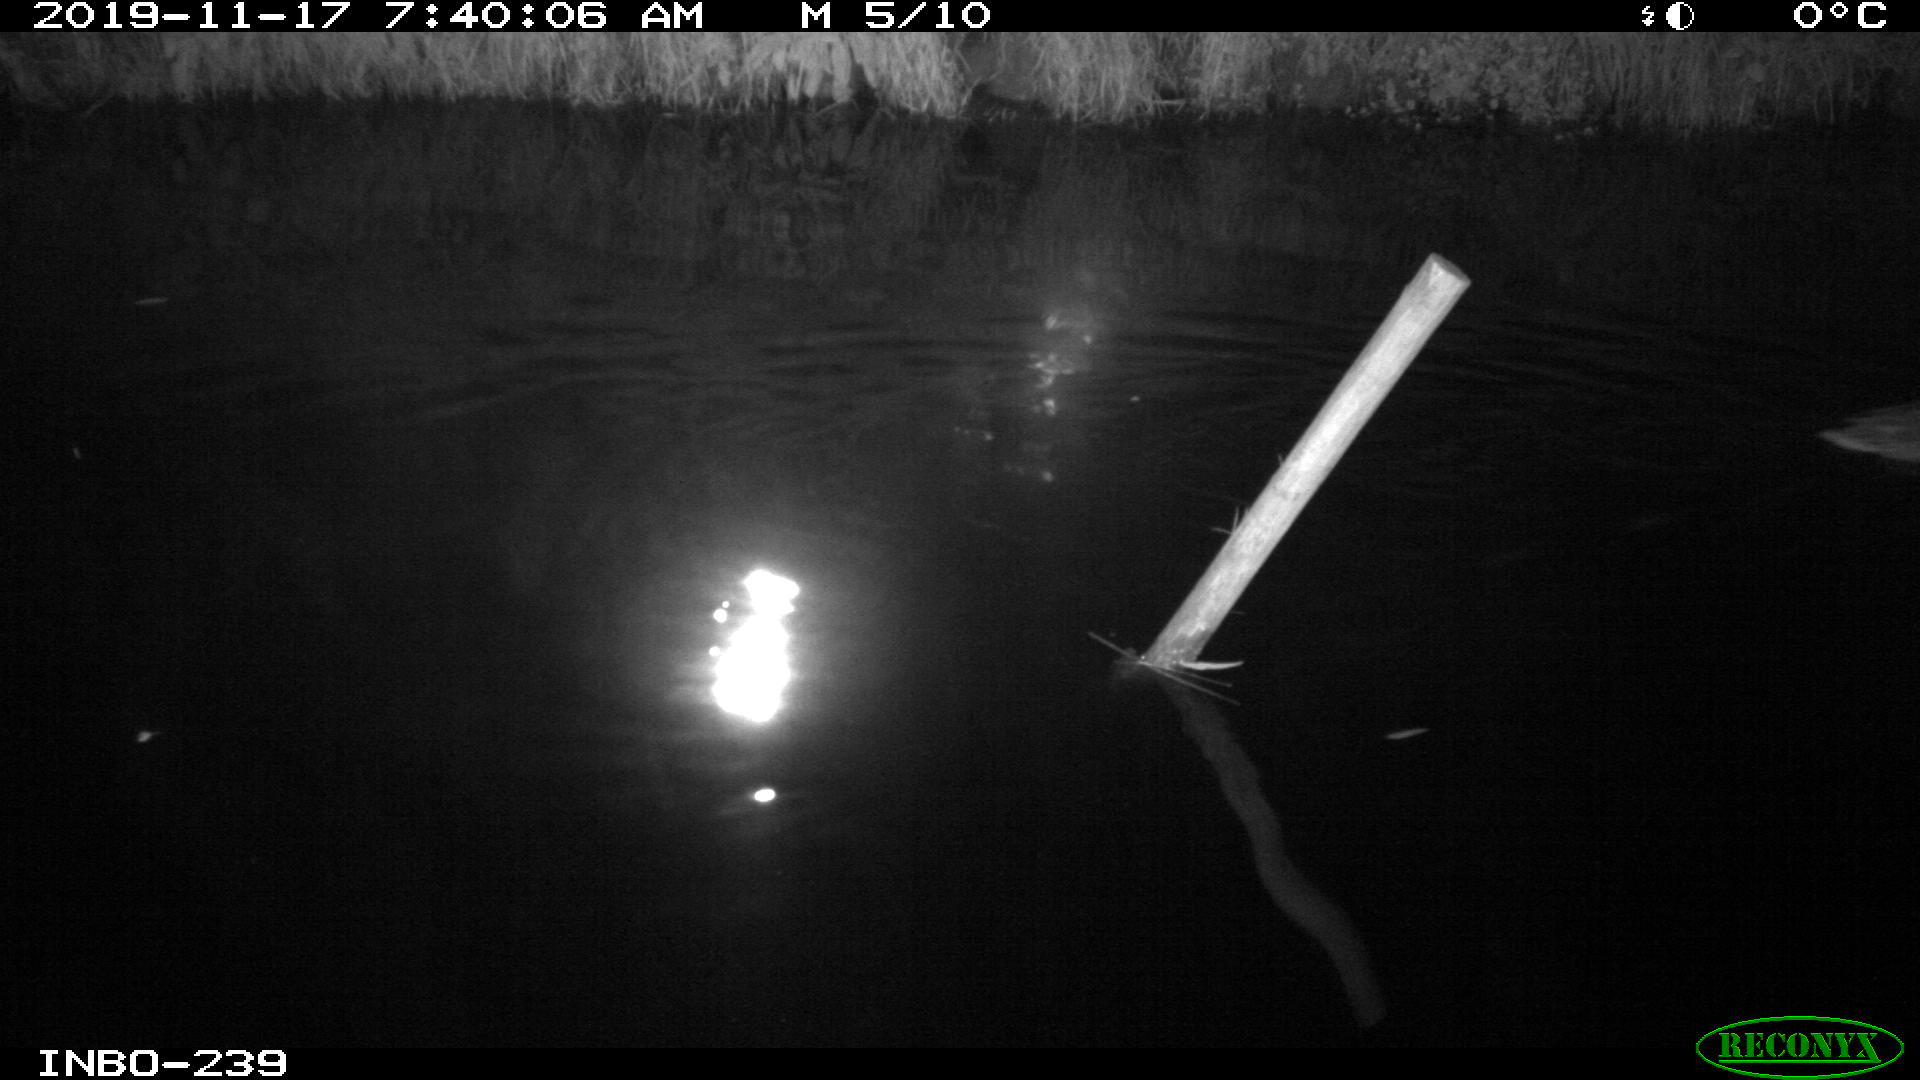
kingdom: Animalia
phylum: Chordata
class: Aves
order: Anseriformes
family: Anatidae
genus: Anas
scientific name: Anas platyrhynchos
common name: Mallard
